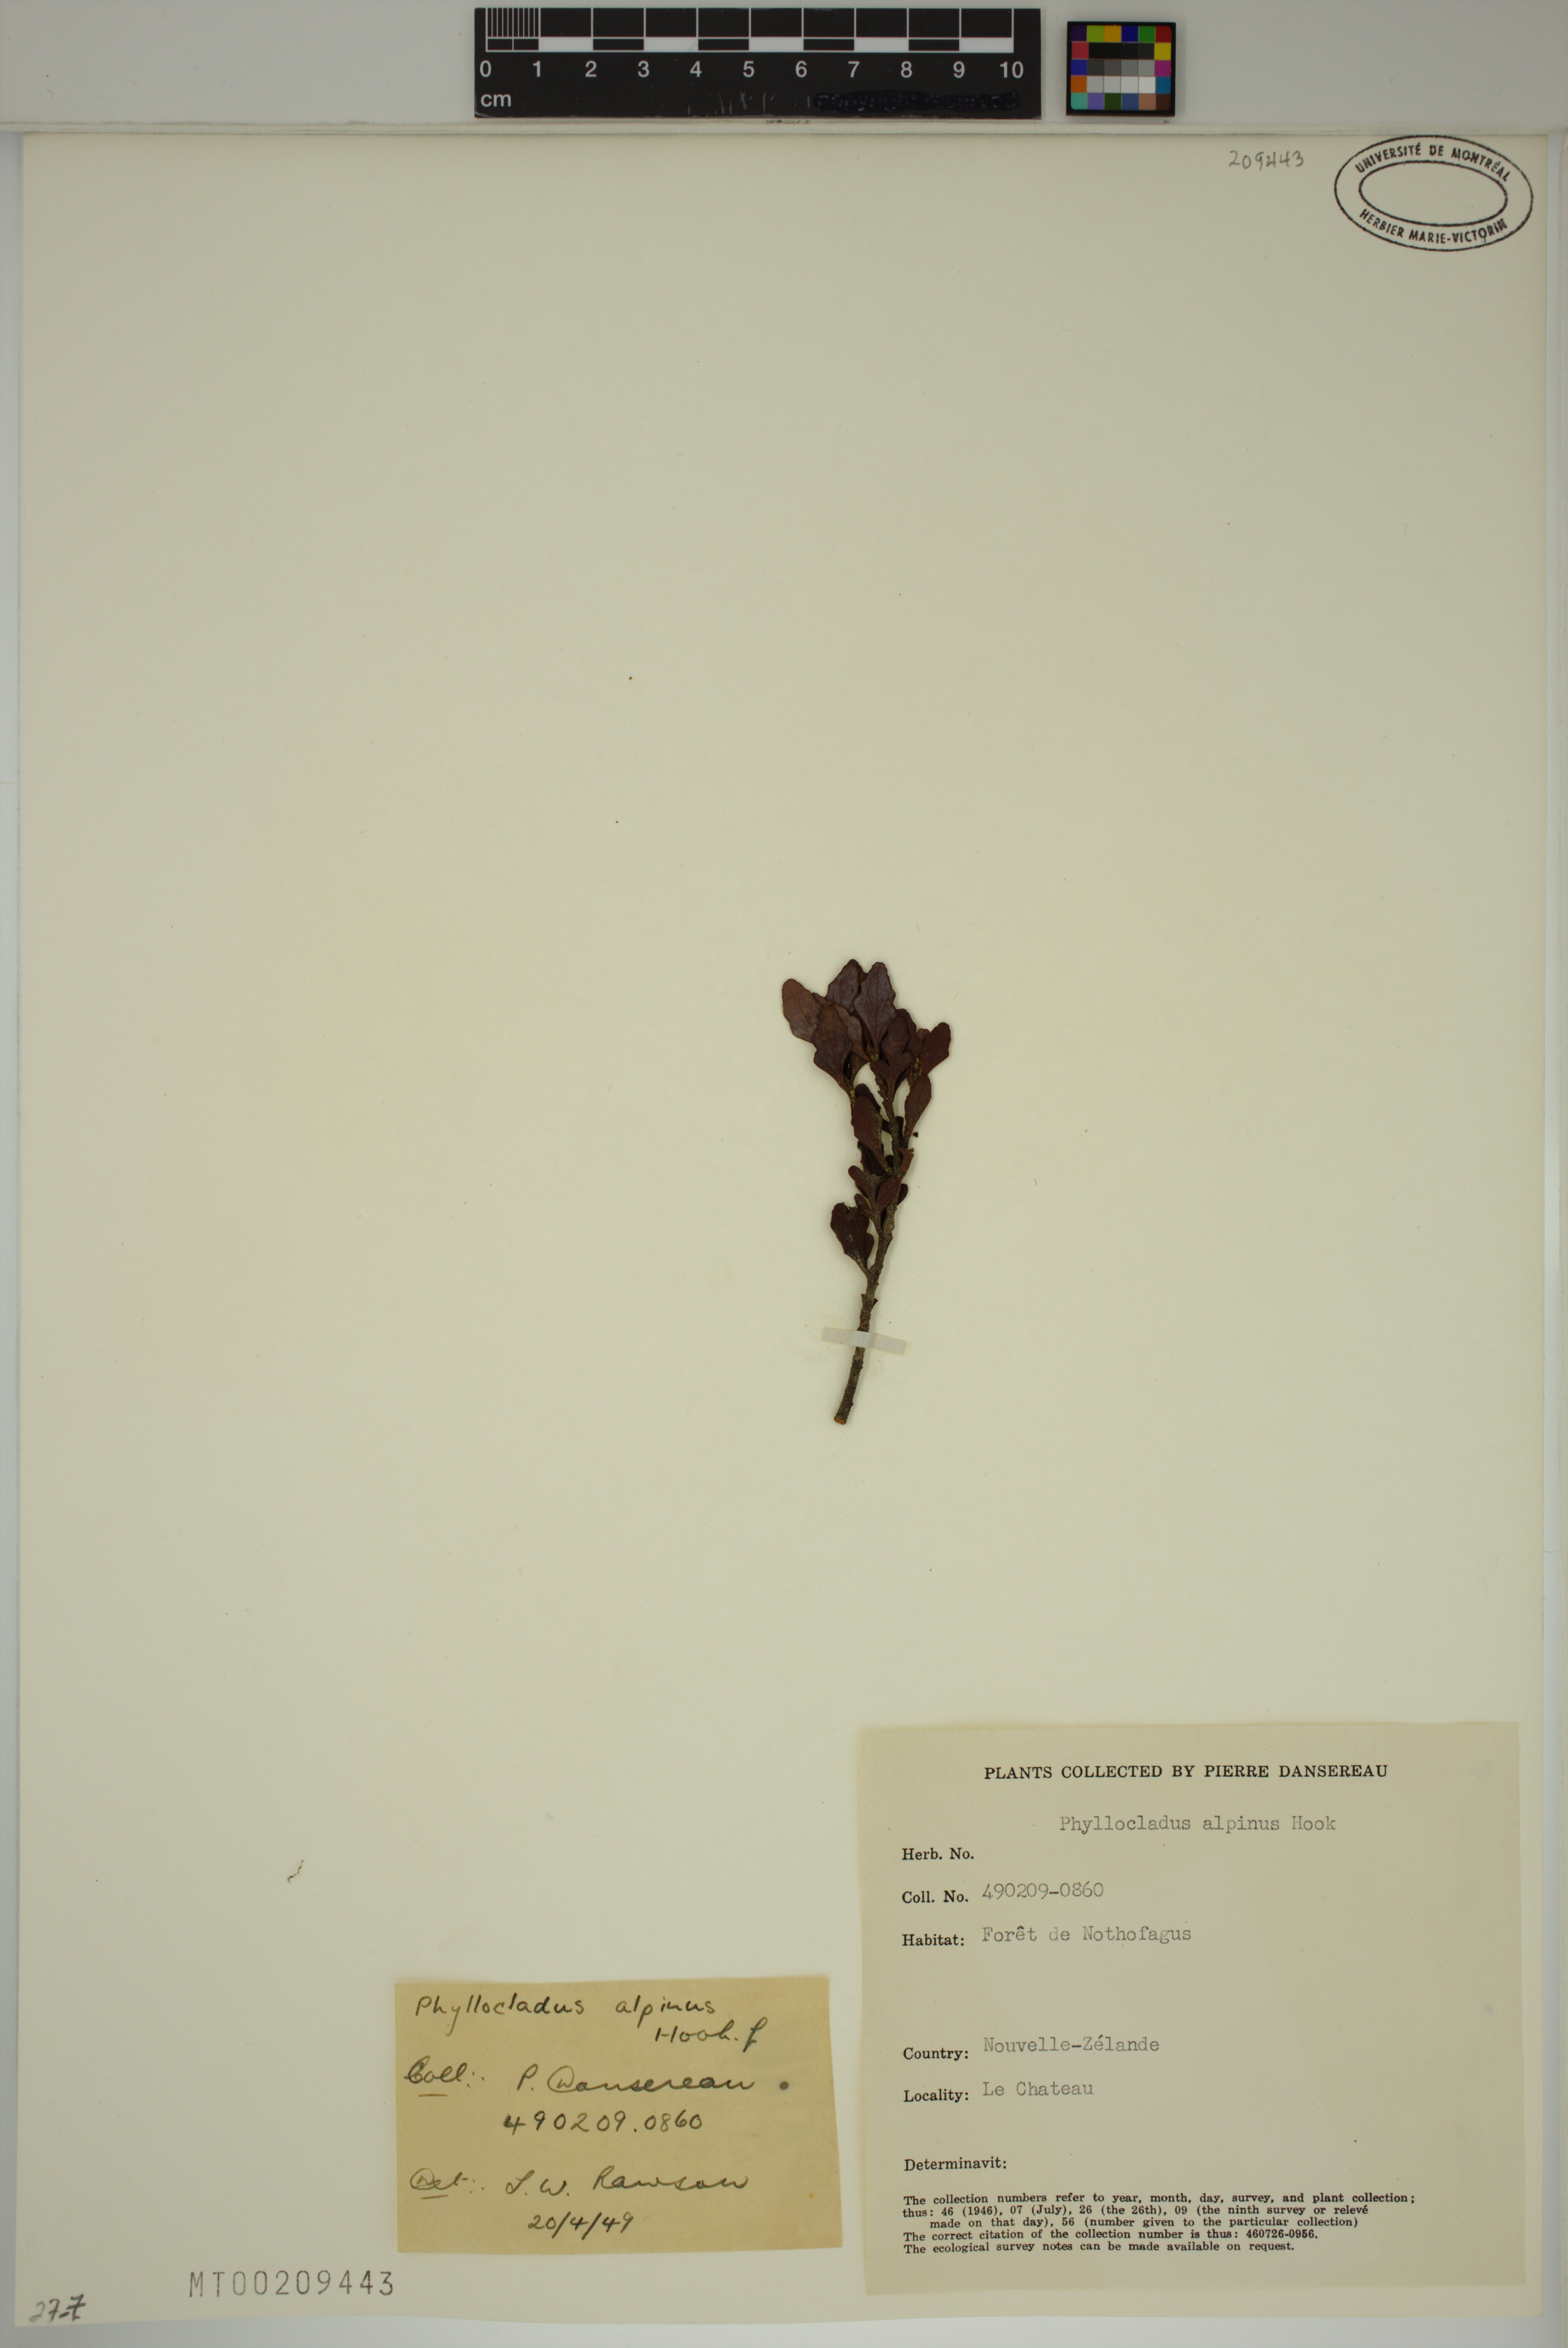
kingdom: Plantae
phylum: Tracheophyta
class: Pinopsida
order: Pinales
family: Phyllocladaceae
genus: Phyllocladus
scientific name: Phyllocladus trichomanoides
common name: Celery pine
